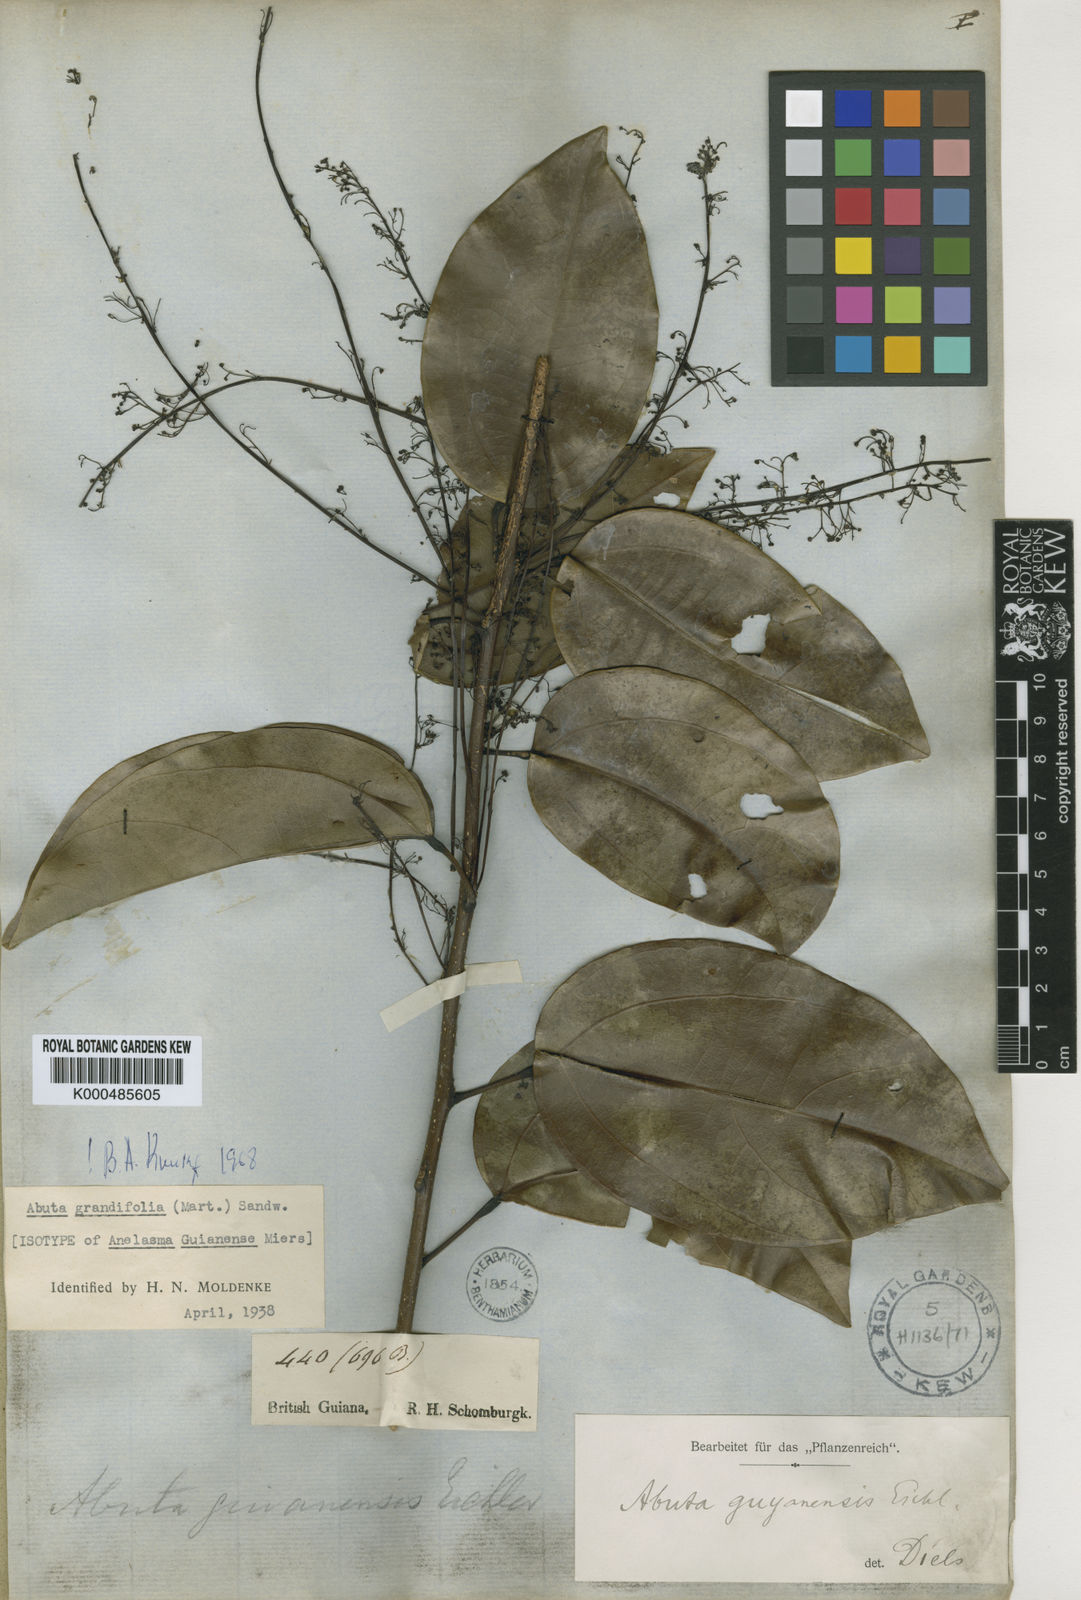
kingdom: Plantae
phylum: Tracheophyta
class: Magnoliopsida
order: Ranunculales
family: Menispermaceae
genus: Abuta
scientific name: Abuta grandifolia
